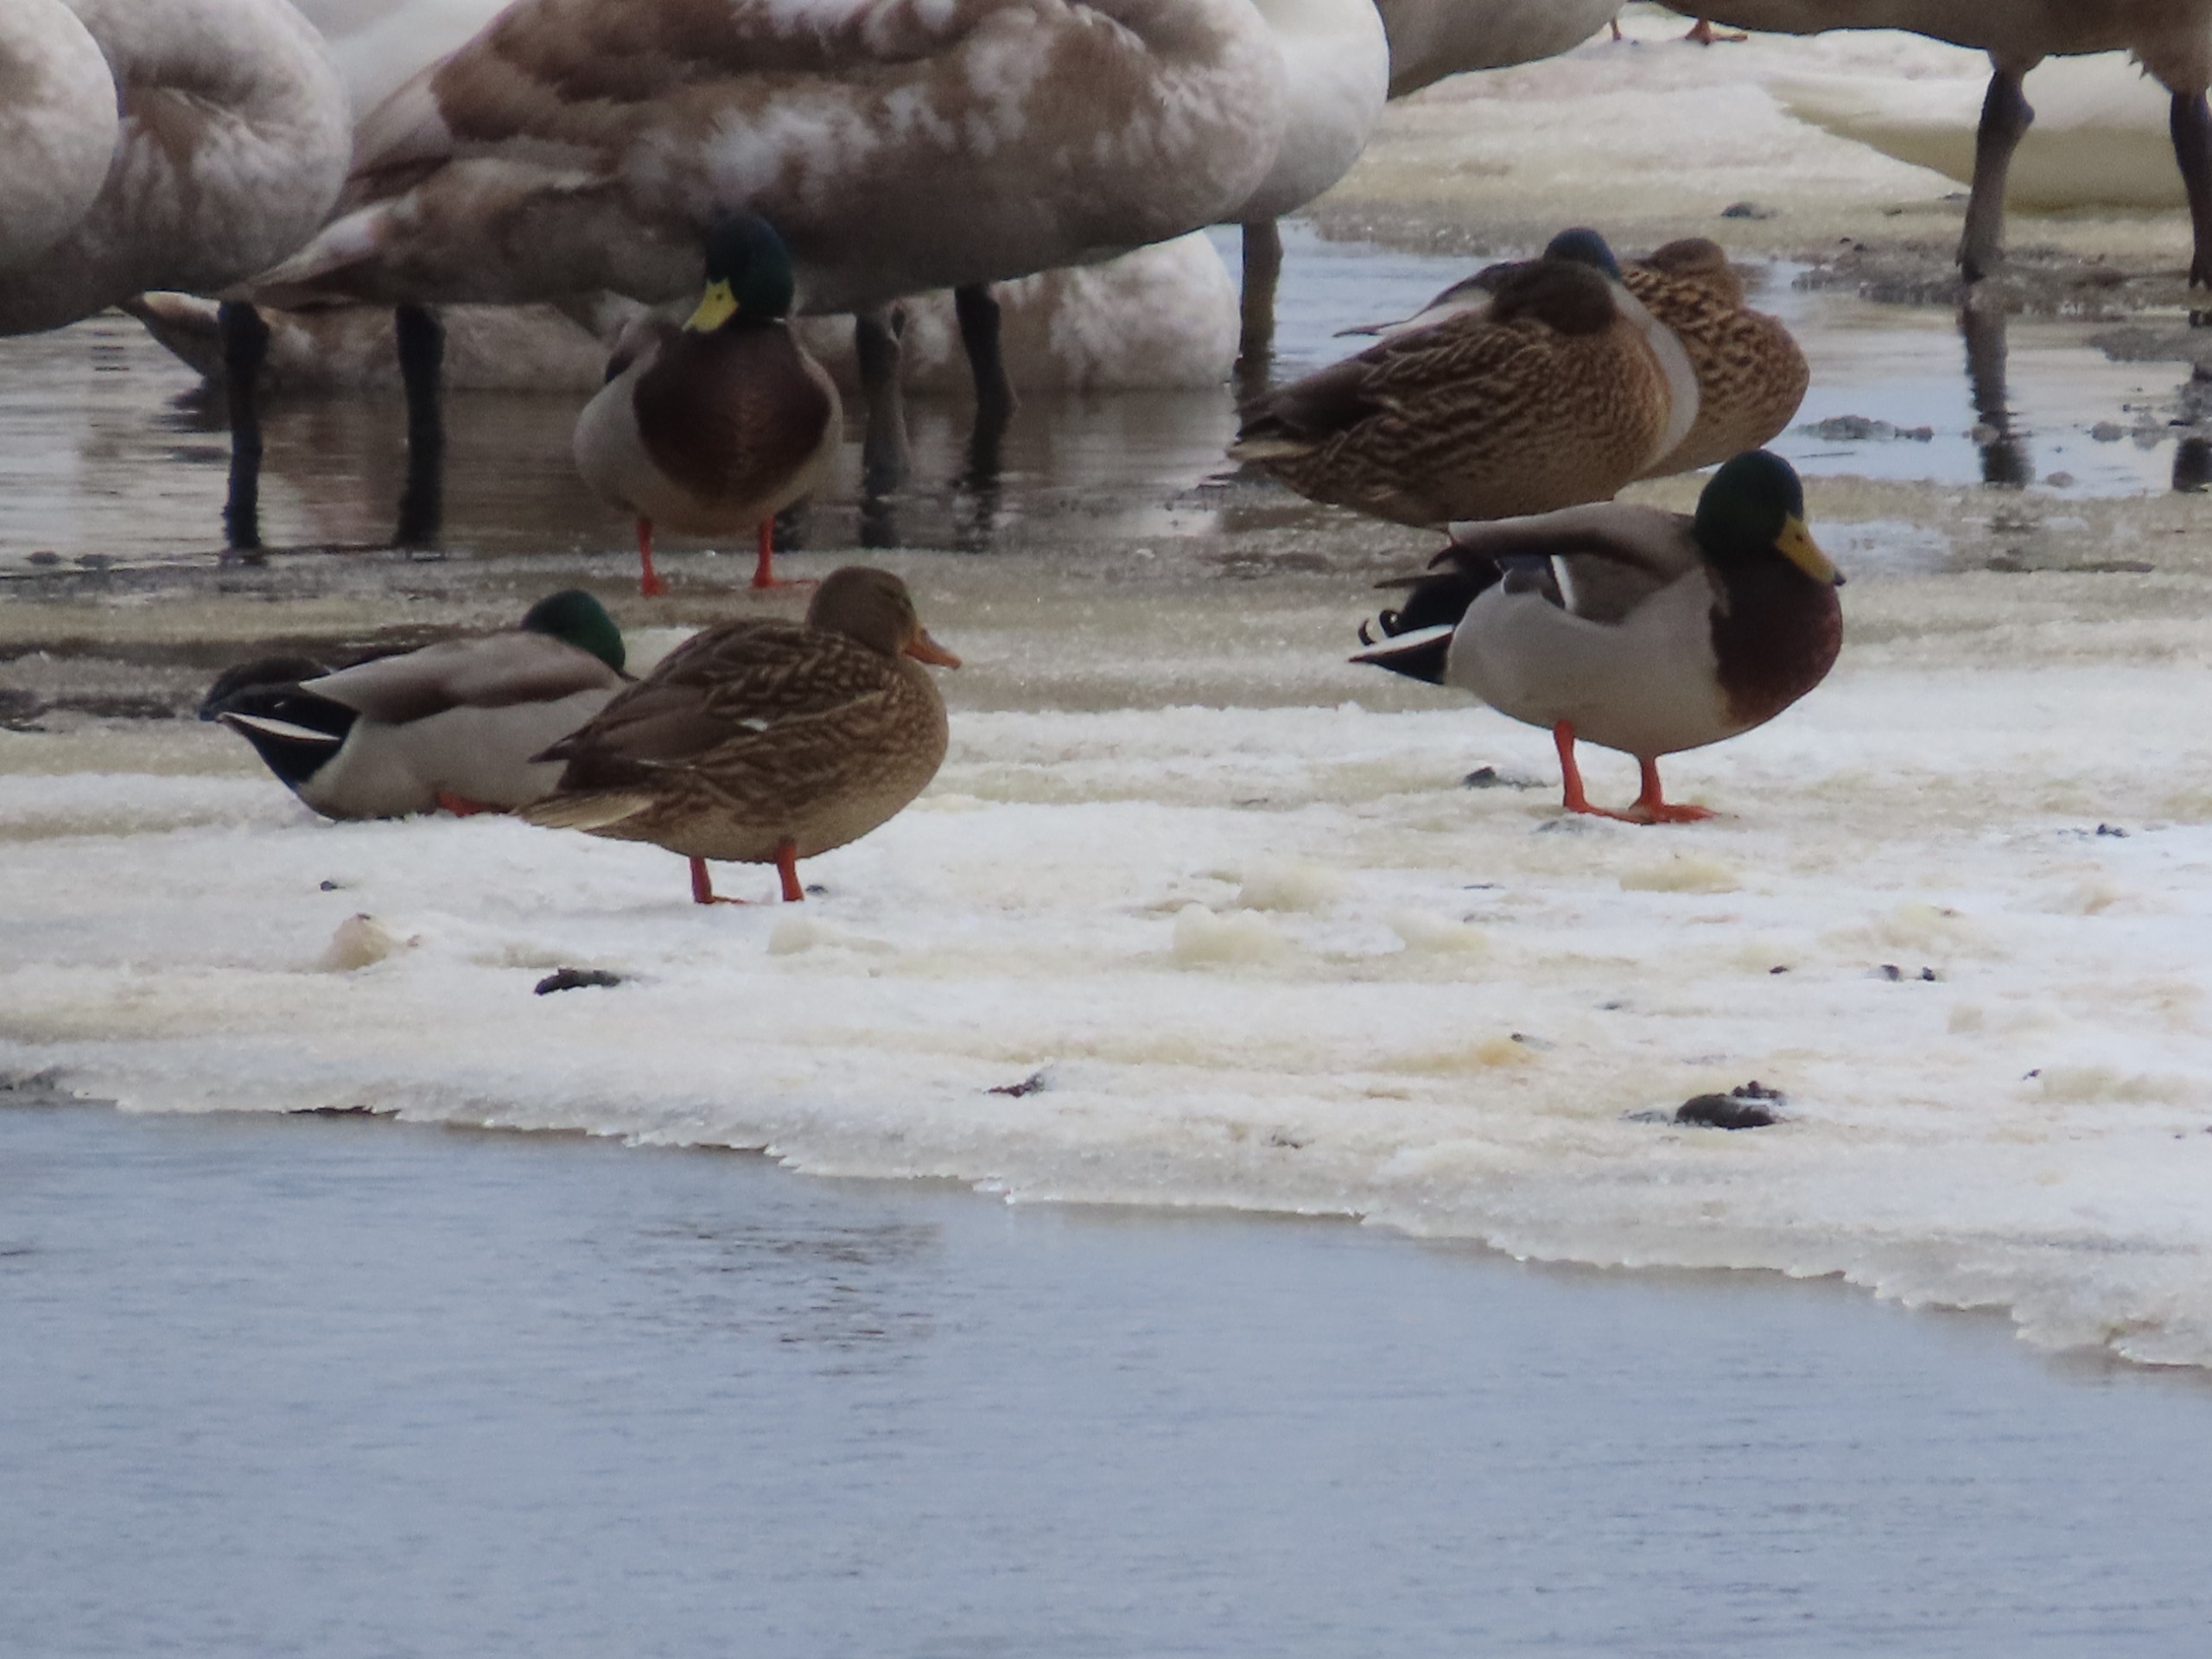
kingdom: Animalia
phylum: Chordata
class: Aves
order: Anseriformes
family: Anatidae
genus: Anas
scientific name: Anas platyrhynchos
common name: Gråand
